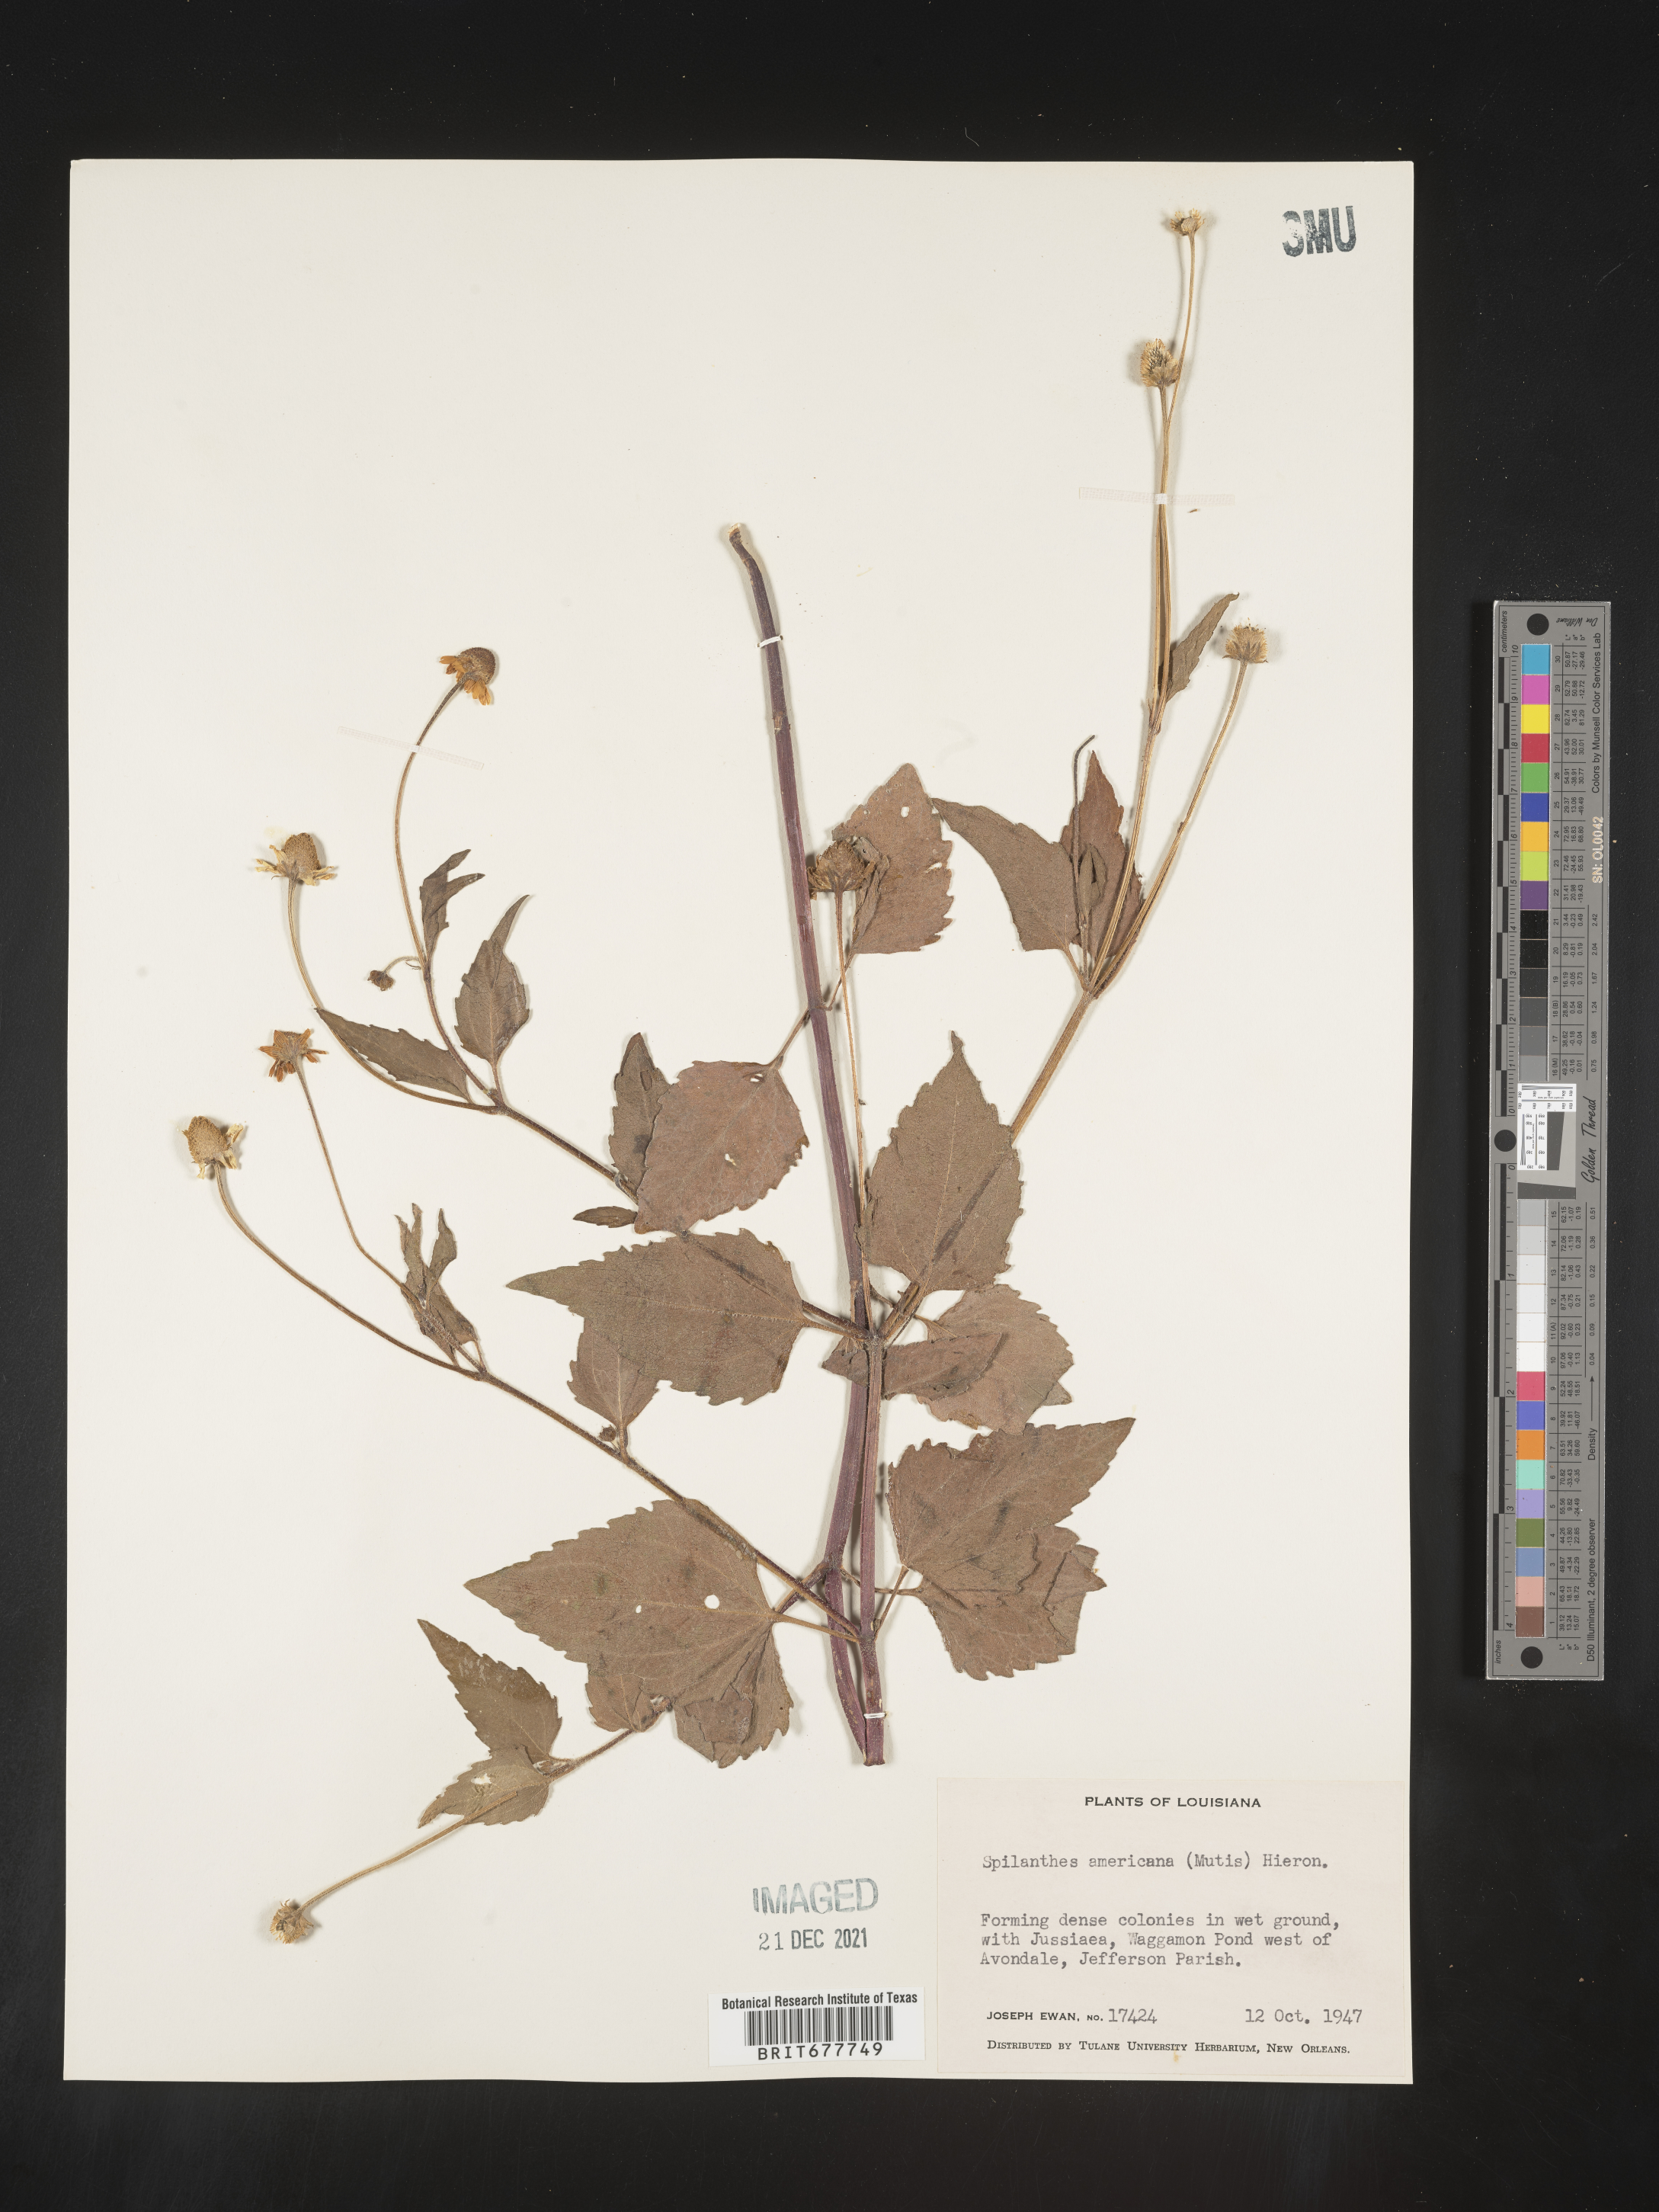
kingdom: Plantae
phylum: Tracheophyta
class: Magnoliopsida
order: Asterales
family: Asteraceae
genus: Spilanthes
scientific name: Spilanthes
